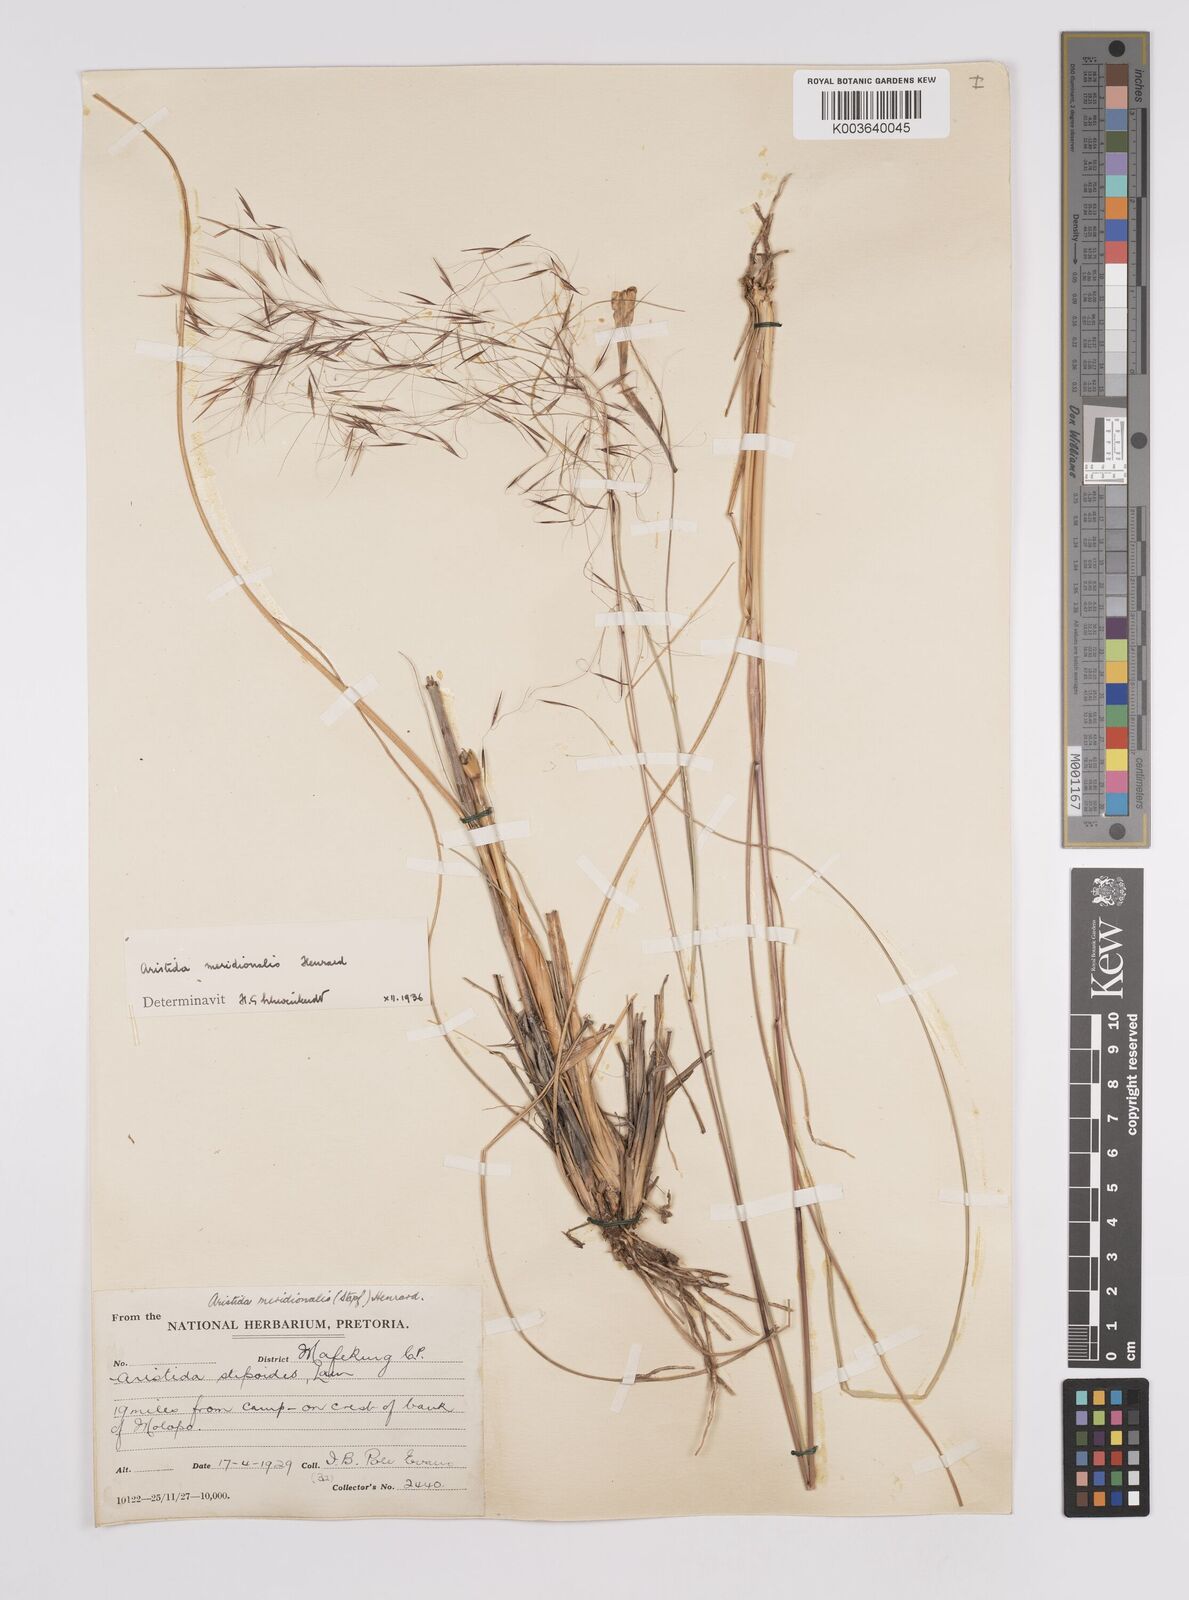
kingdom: Plantae
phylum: Tracheophyta
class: Liliopsida
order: Poales
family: Poaceae
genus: Aristida
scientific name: Aristida meridionalis
